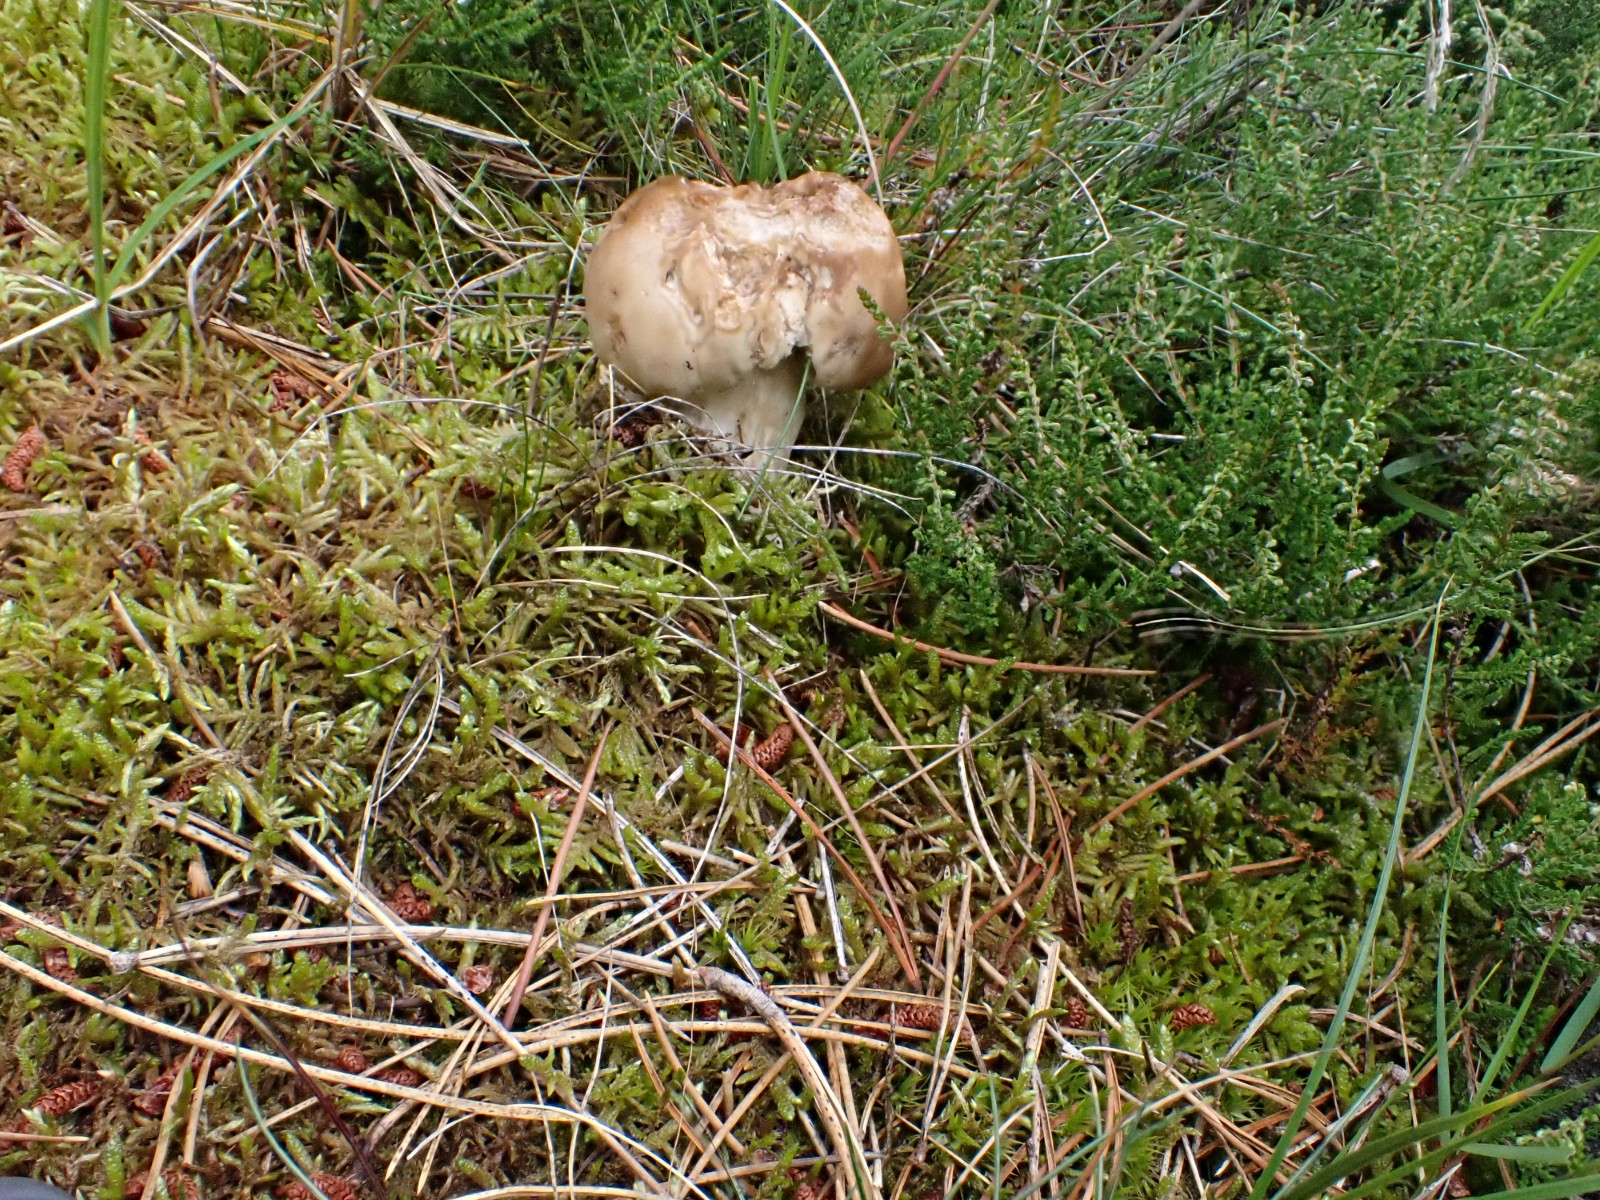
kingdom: Fungi
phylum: Basidiomycota
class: Agaricomycetes
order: Boletales
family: Boletaceae
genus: Boletus
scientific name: Boletus
